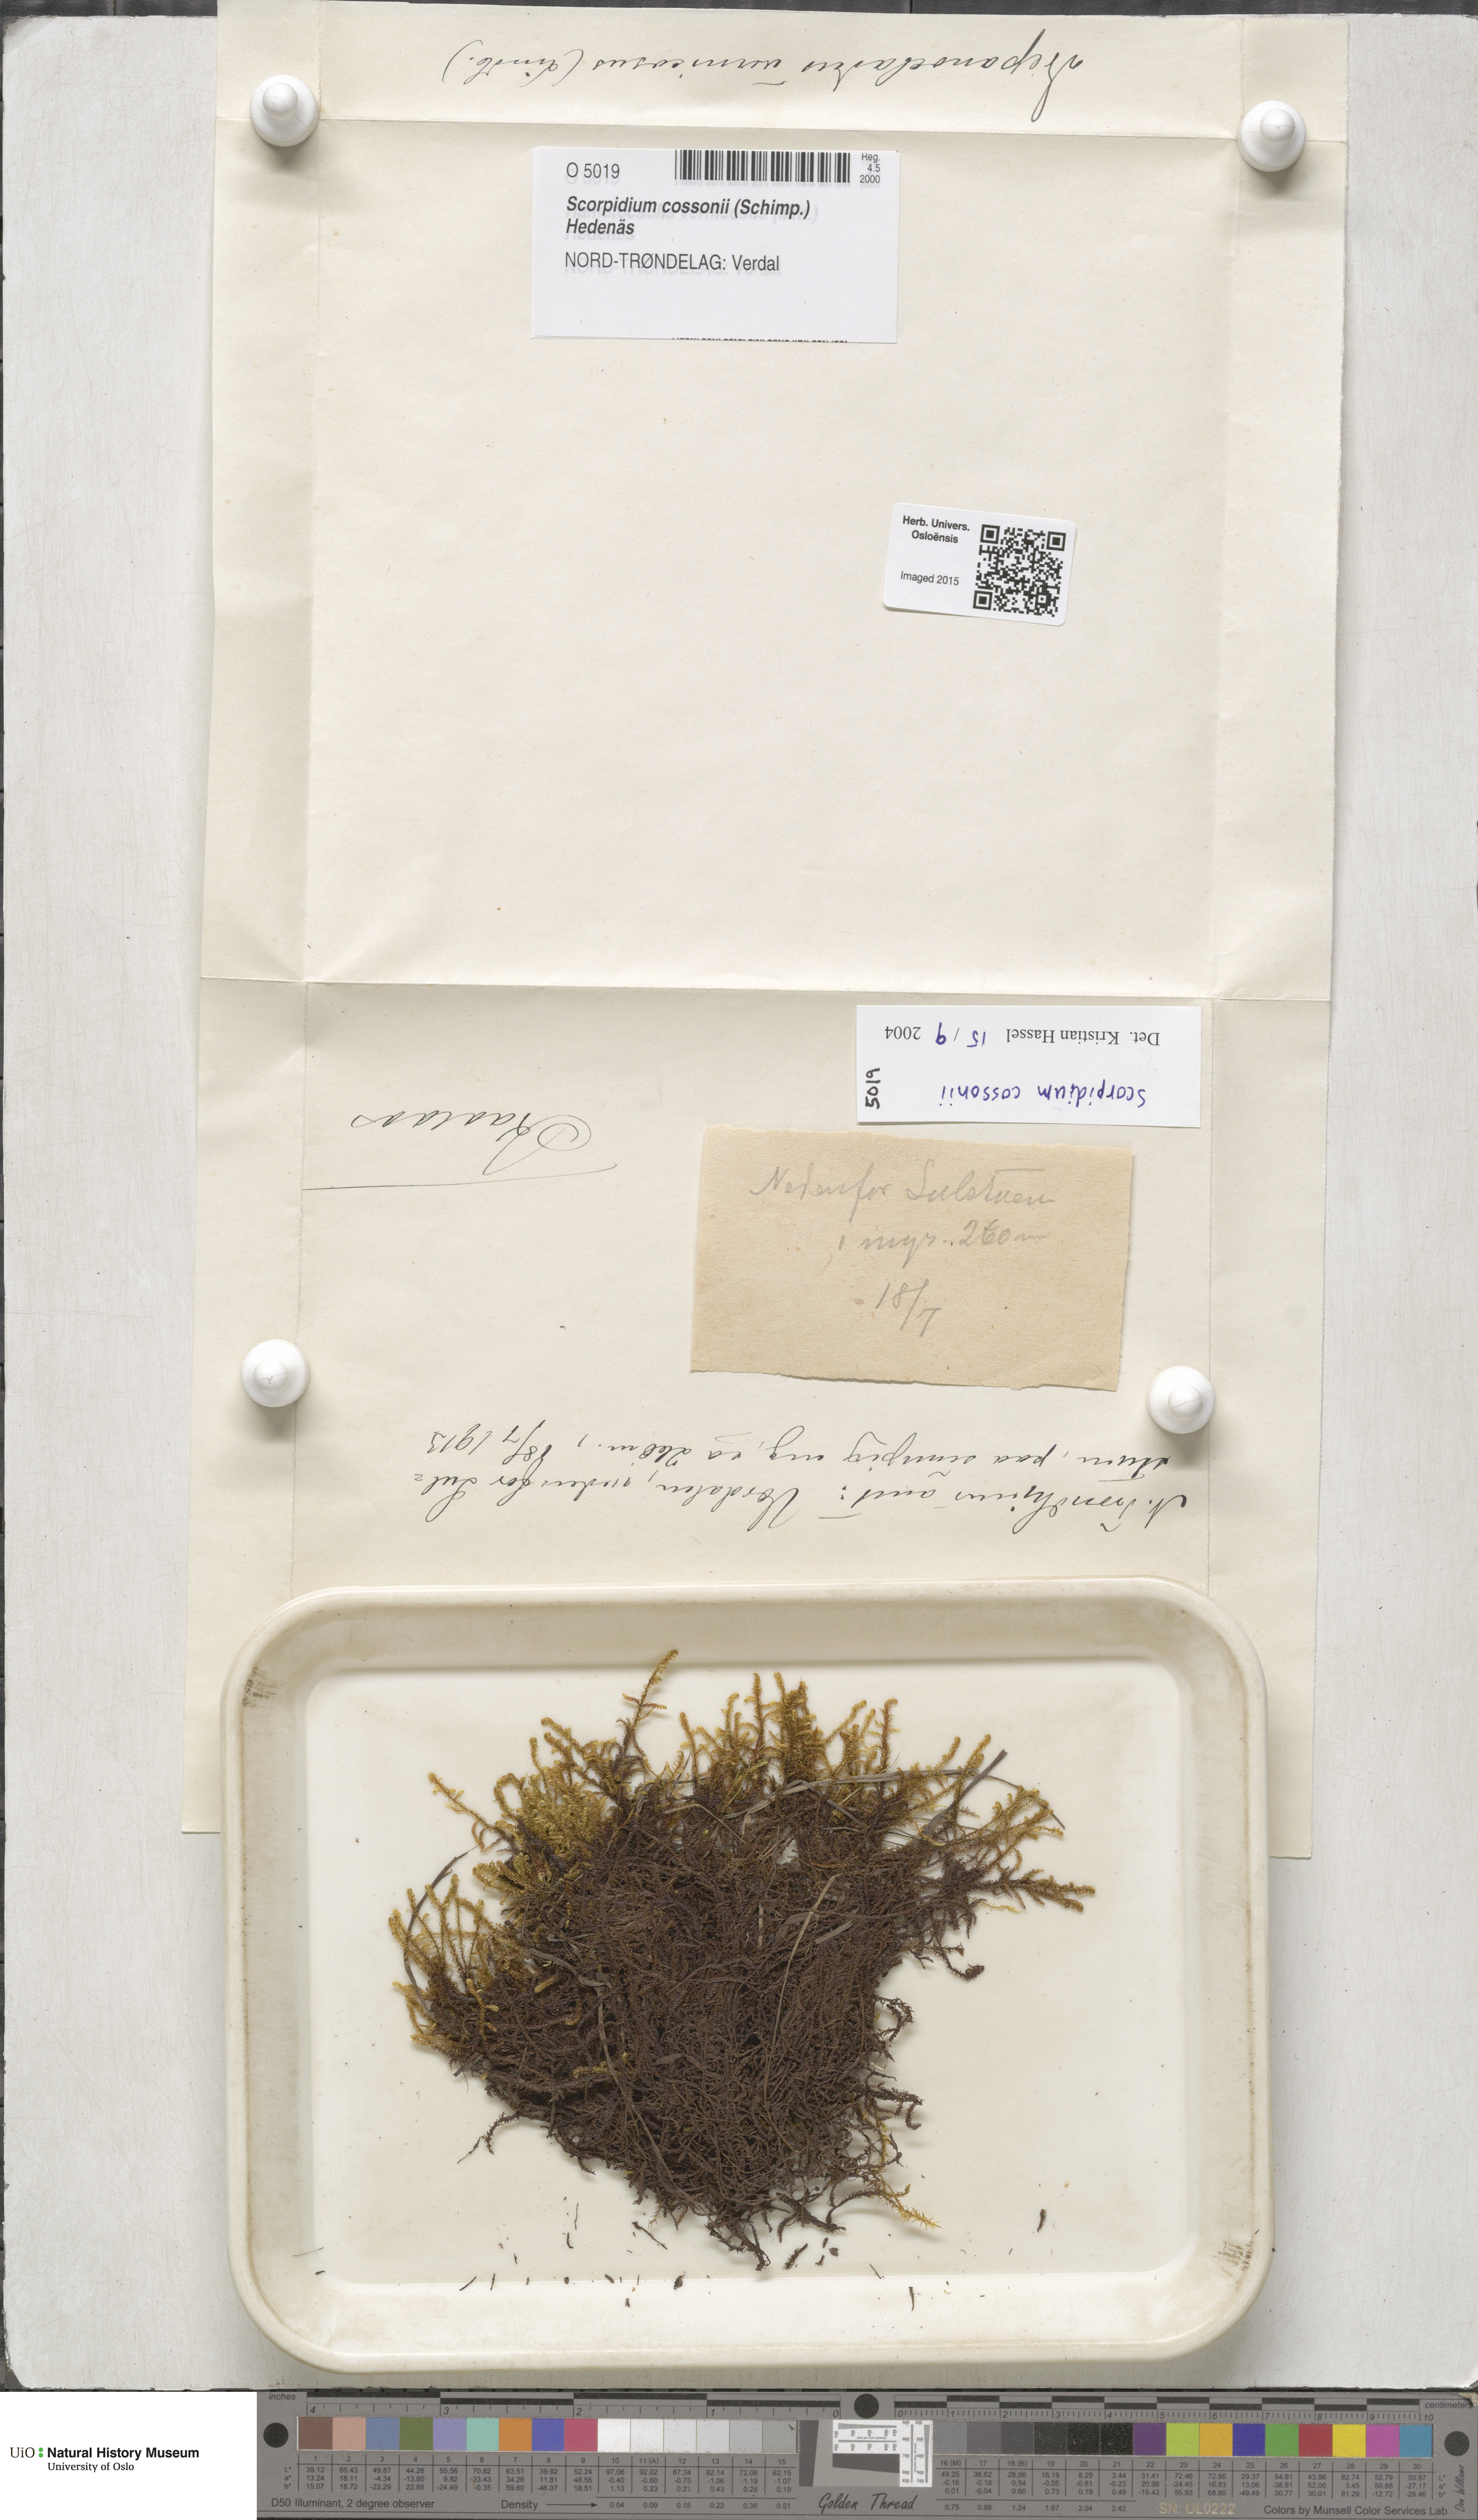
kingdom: Plantae
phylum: Bryophyta
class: Bryopsida
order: Hypnales
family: Scorpidiaceae
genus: Scorpidium
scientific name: Scorpidium cossonii
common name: Cosson's hook moss
